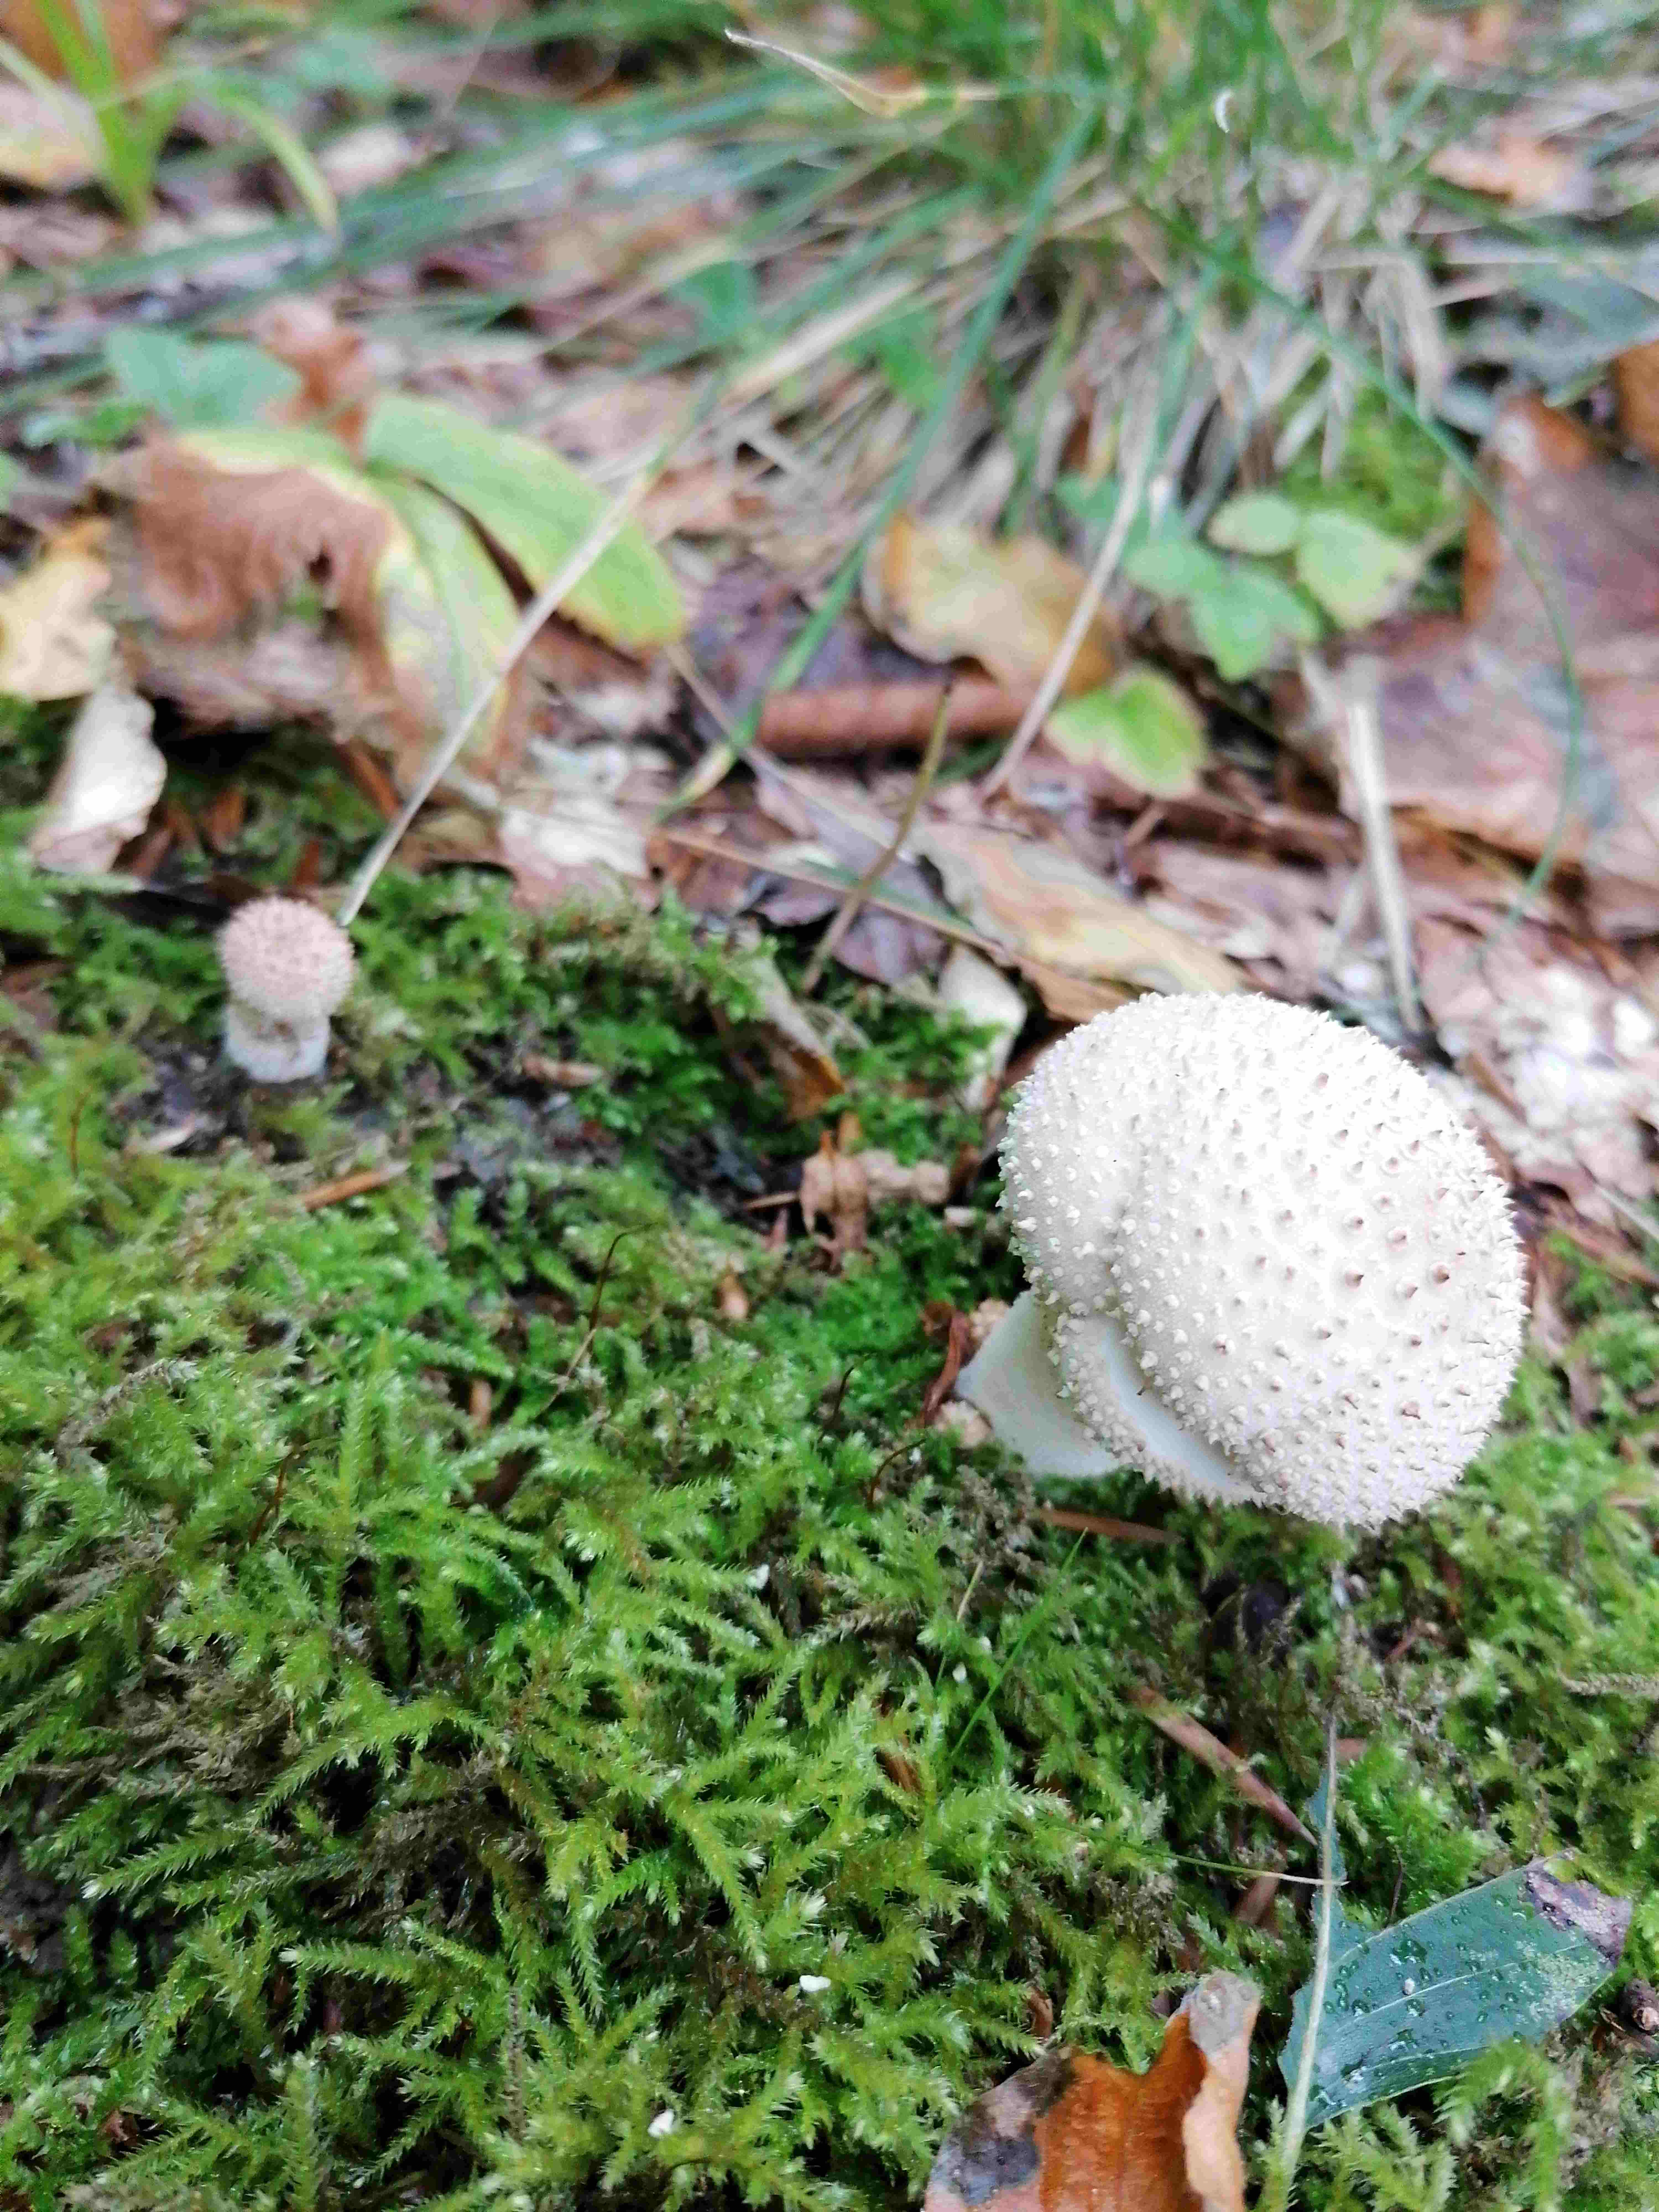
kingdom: Fungi
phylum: Basidiomycota
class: Agaricomycetes
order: Agaricales
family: Lycoperdaceae
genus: Lycoperdon
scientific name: Lycoperdon perlatum
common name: krystal-støvbold
